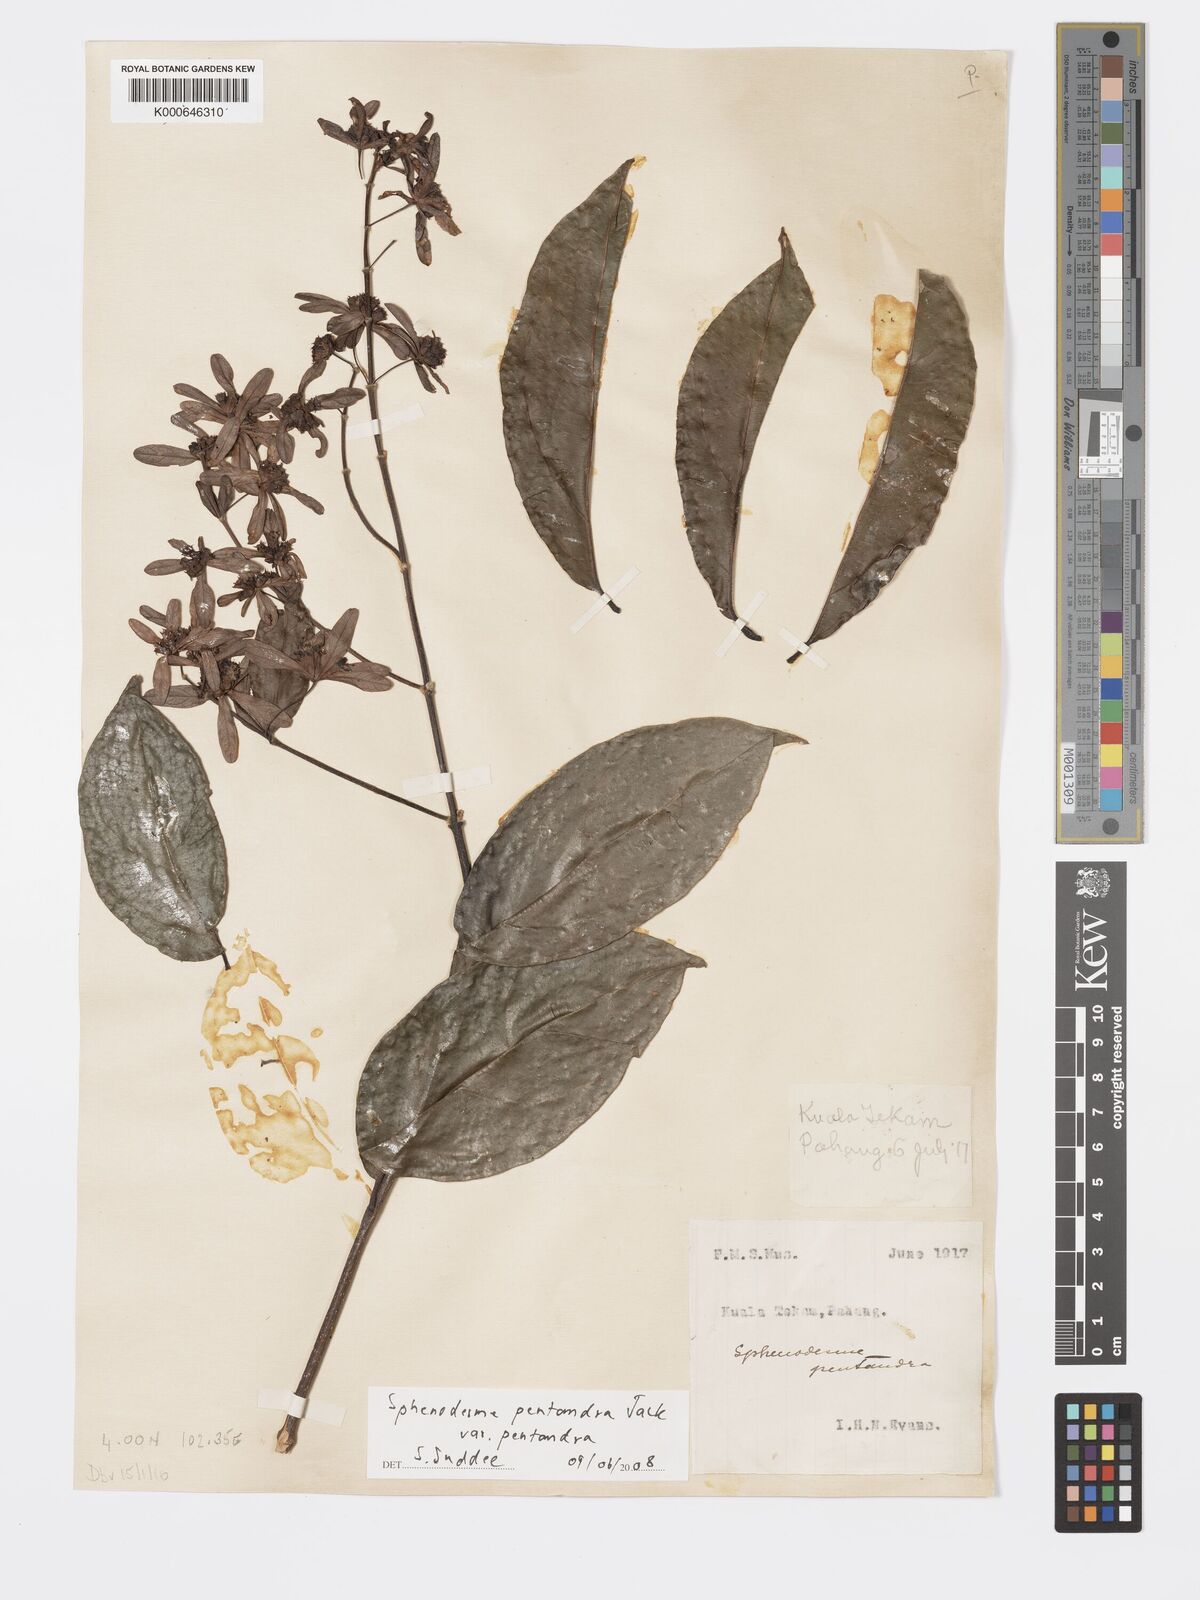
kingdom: Plantae
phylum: Tracheophyta
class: Magnoliopsida
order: Lamiales
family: Lamiaceae
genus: Sphenodesme
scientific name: Sphenodesme pentandra
